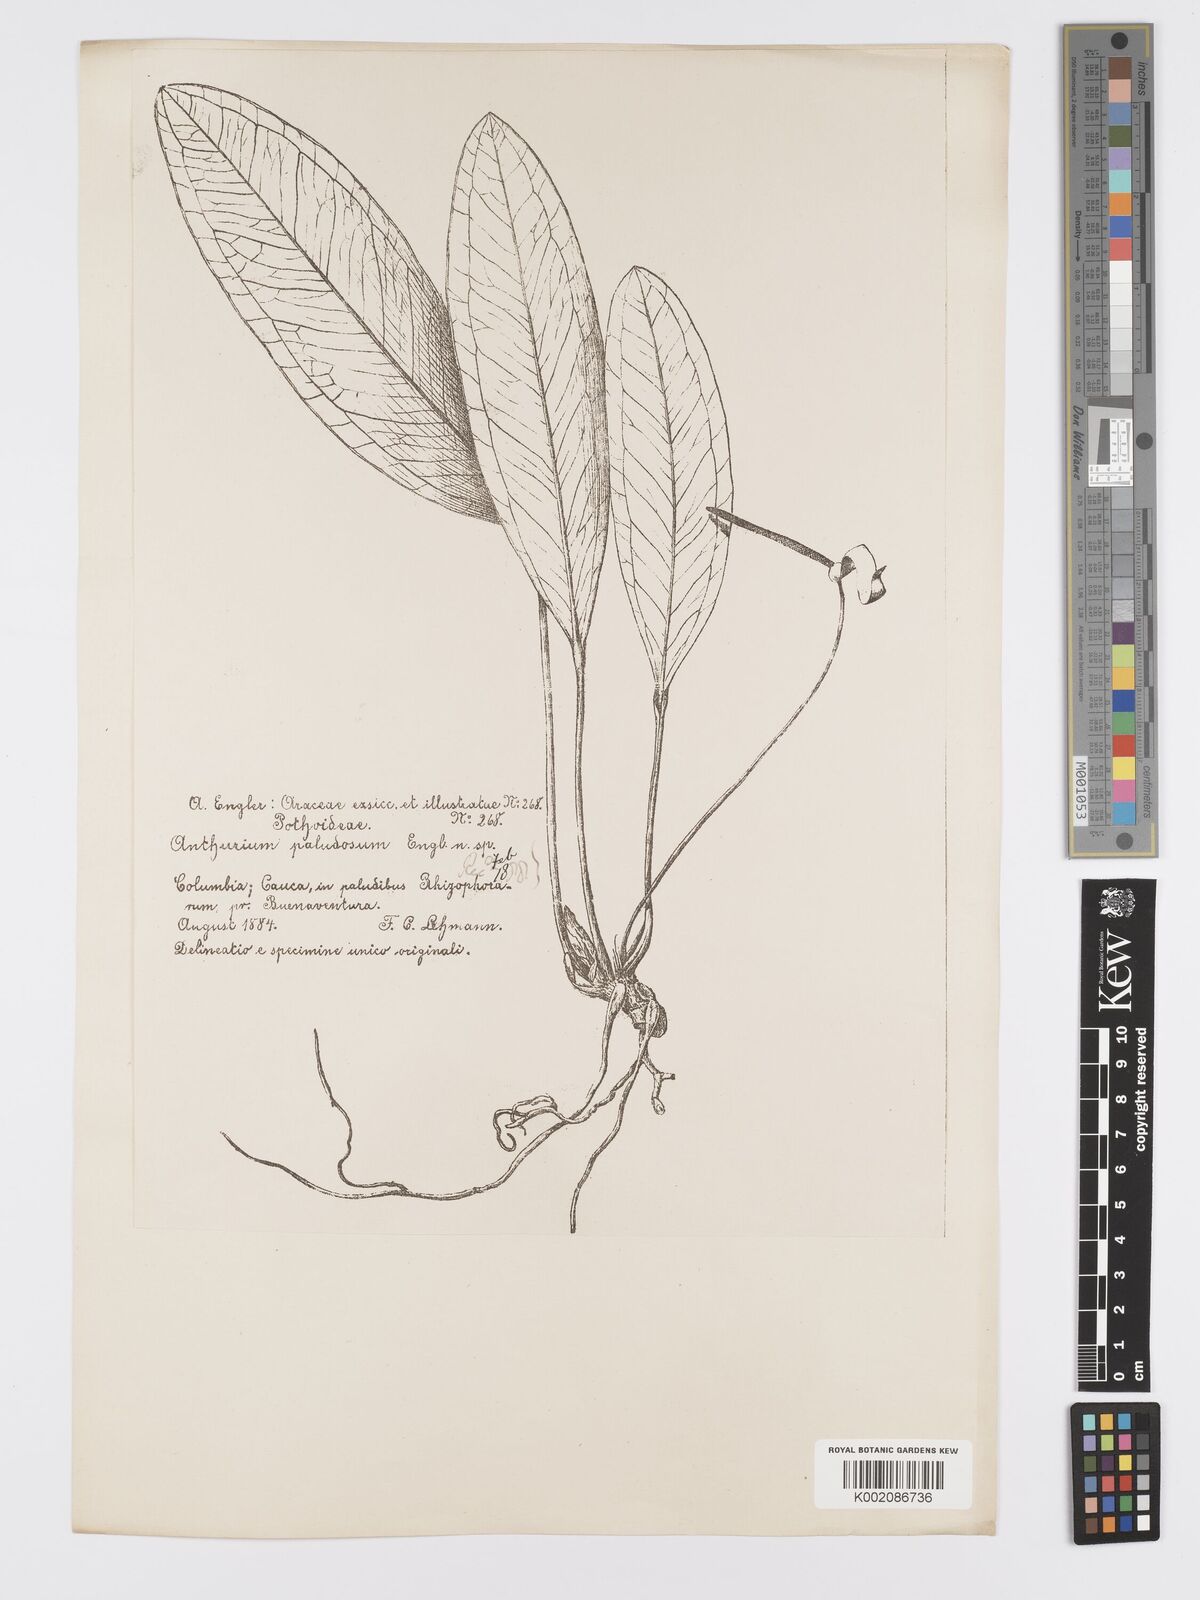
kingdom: Plantae
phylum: Tracheophyta
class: Liliopsida
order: Alismatales
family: Araceae
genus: Anthurium
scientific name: Anthurium paludosum
